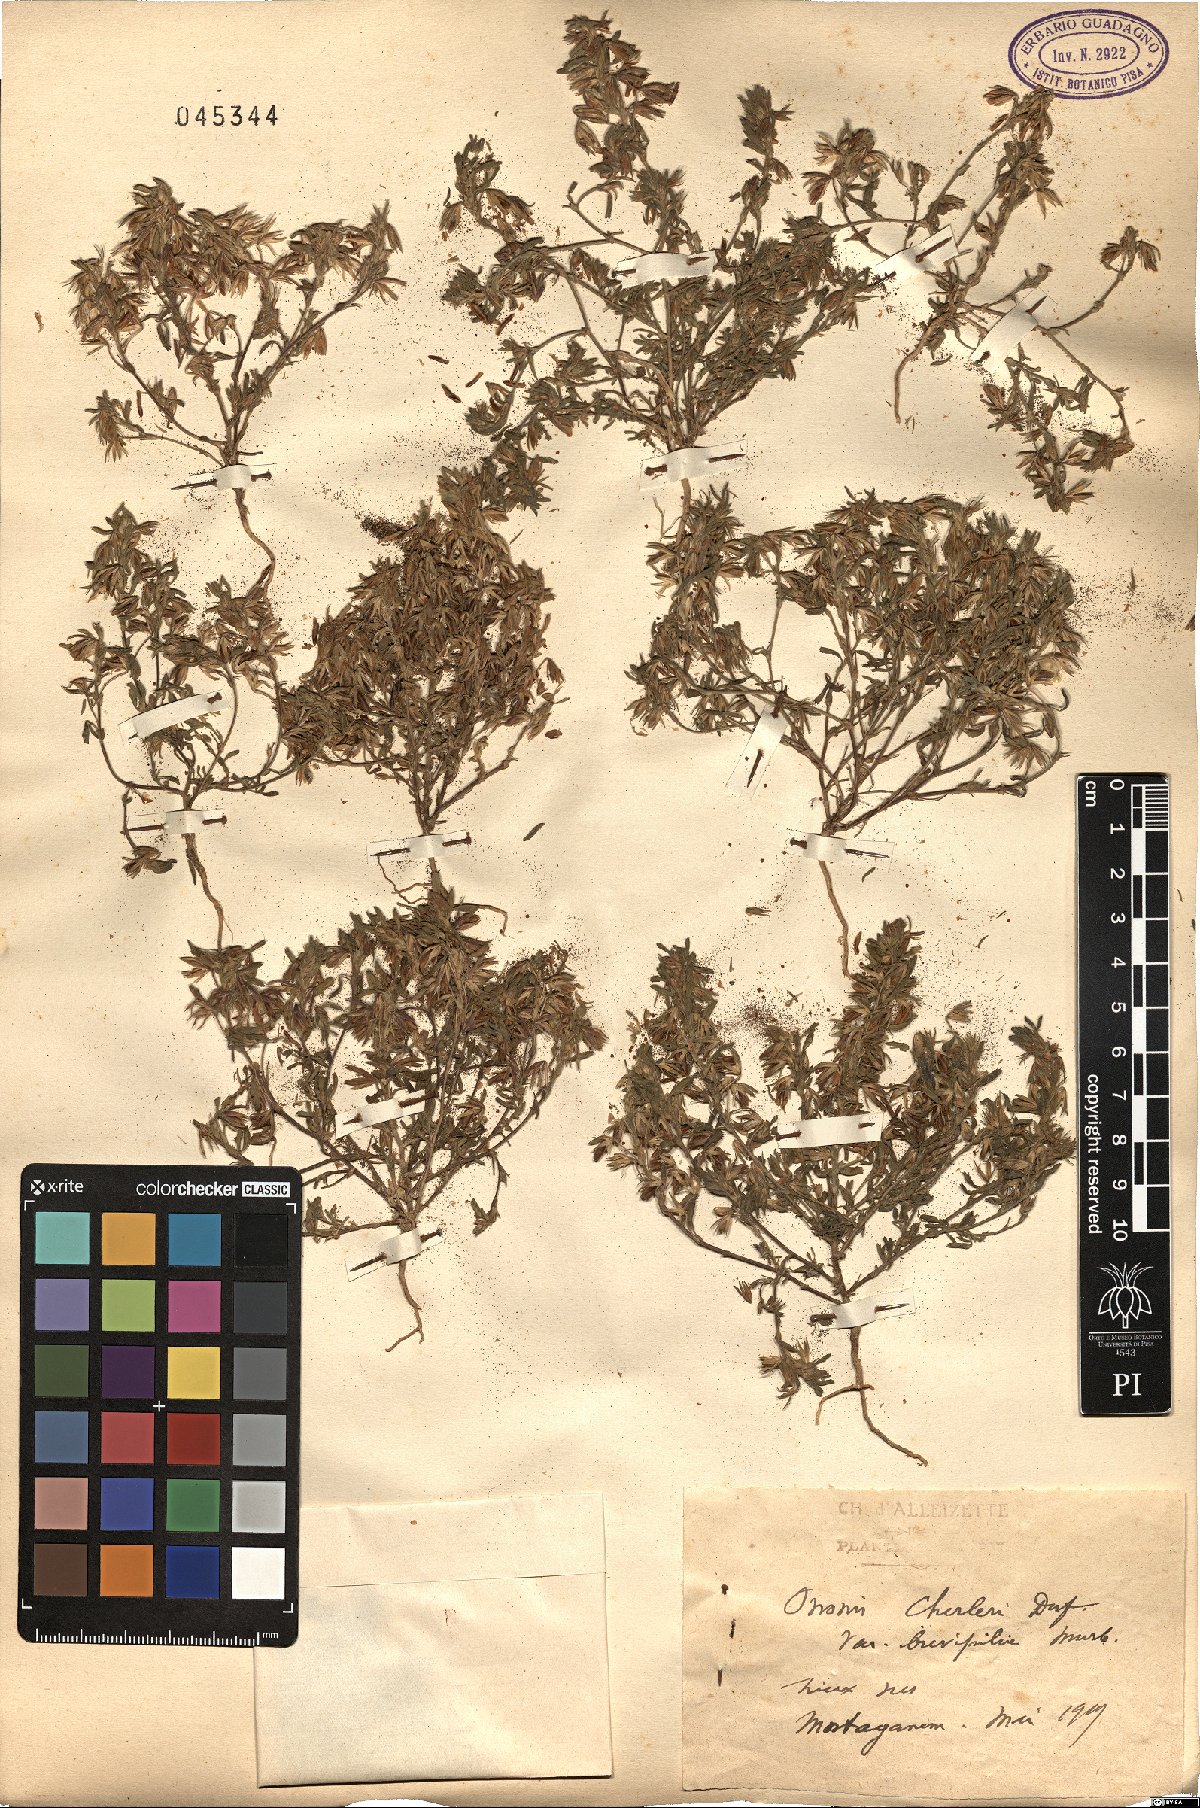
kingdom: Plantae
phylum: Tracheophyta
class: Magnoliopsida
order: Fabales
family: Fabaceae
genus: Ononis
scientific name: Ononis
